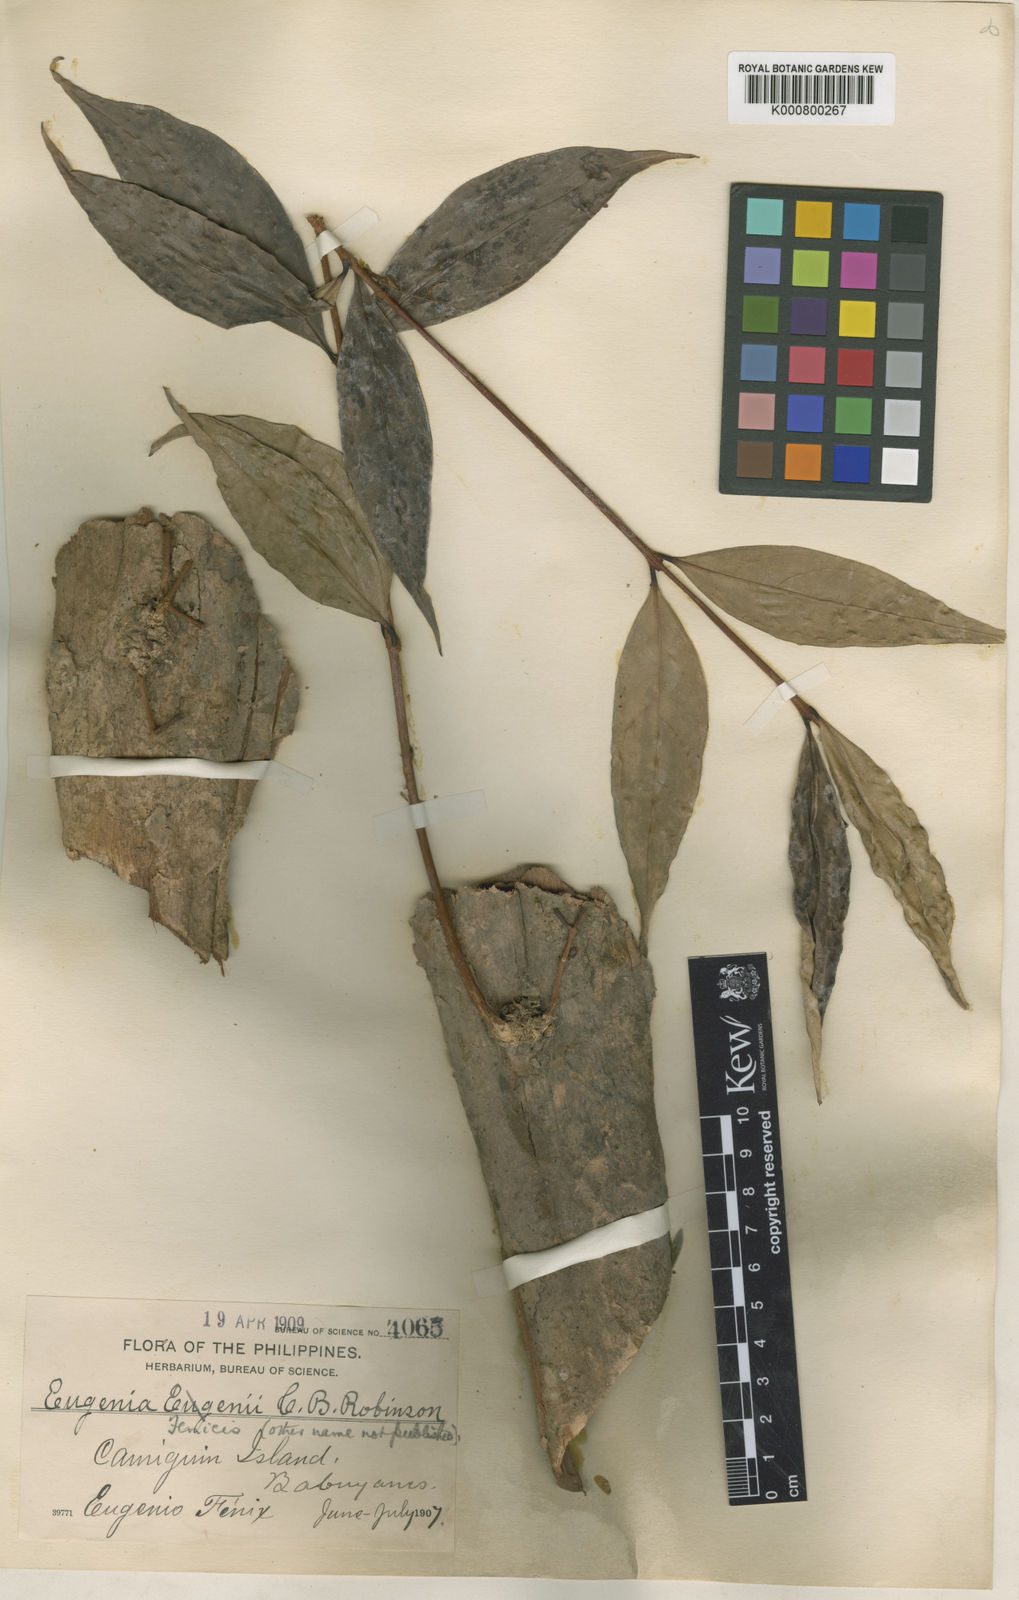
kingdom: Plantae
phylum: Tracheophyta
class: Magnoliopsida
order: Myrtales
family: Myrtaceae
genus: Syzygium
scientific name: Syzygium fenicis
